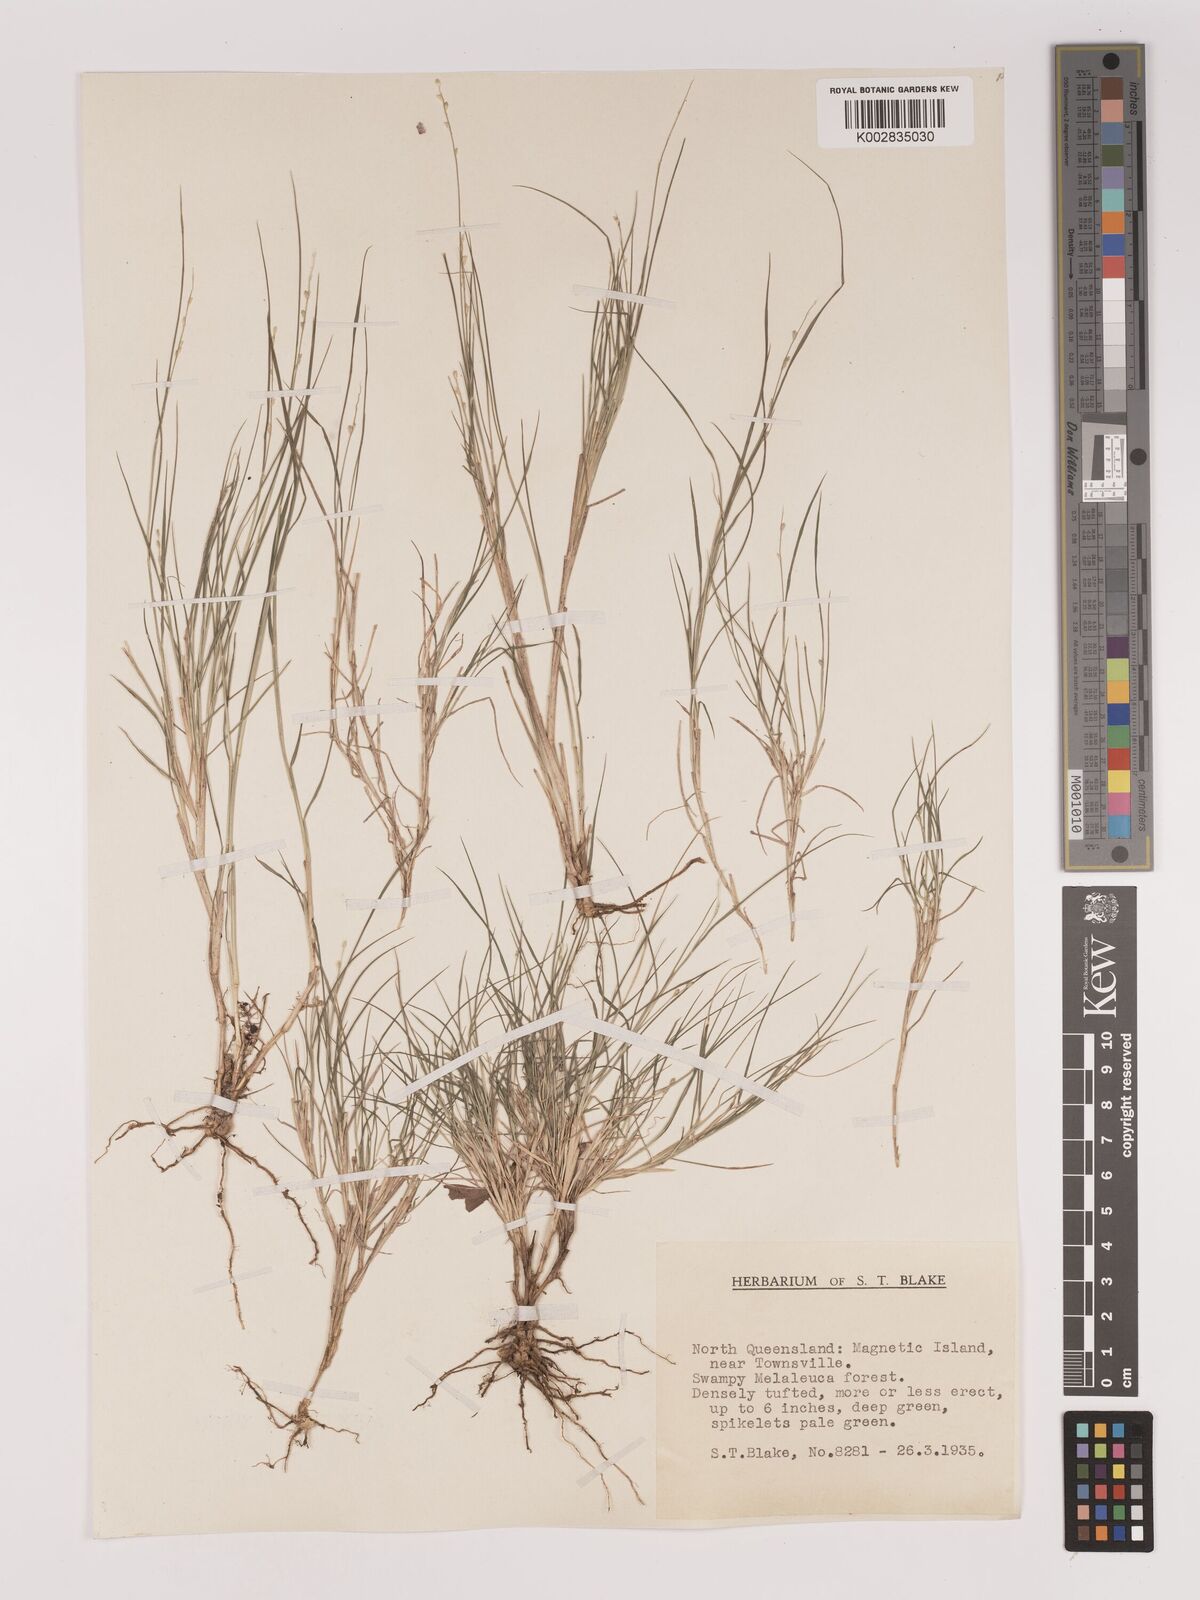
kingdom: Plantae
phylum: Tracheophyta
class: Liliopsida
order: Poales
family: Poaceae
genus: Setaria
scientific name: Setaria
